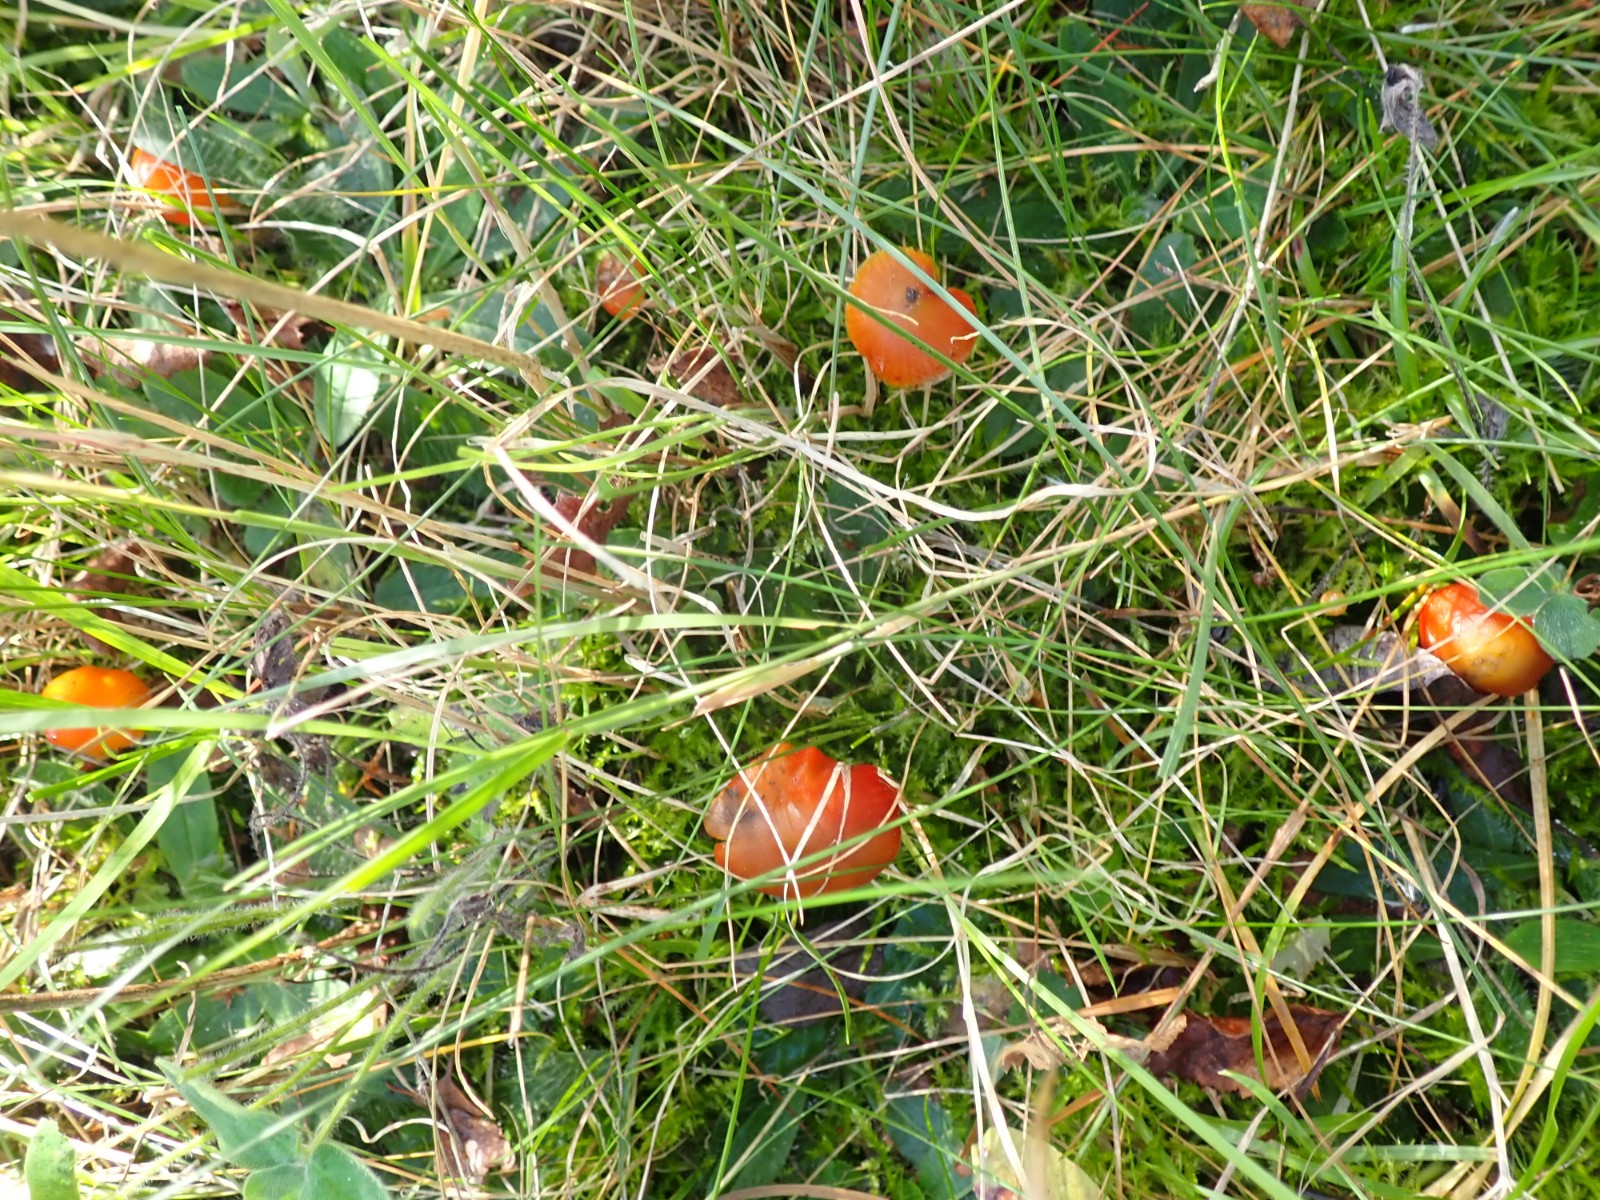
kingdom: Fungi
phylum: Basidiomycota
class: Agaricomycetes
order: Agaricales
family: Hygrophoraceae
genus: Hygrocybe
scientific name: Hygrocybe conica
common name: kegle-vokshat
